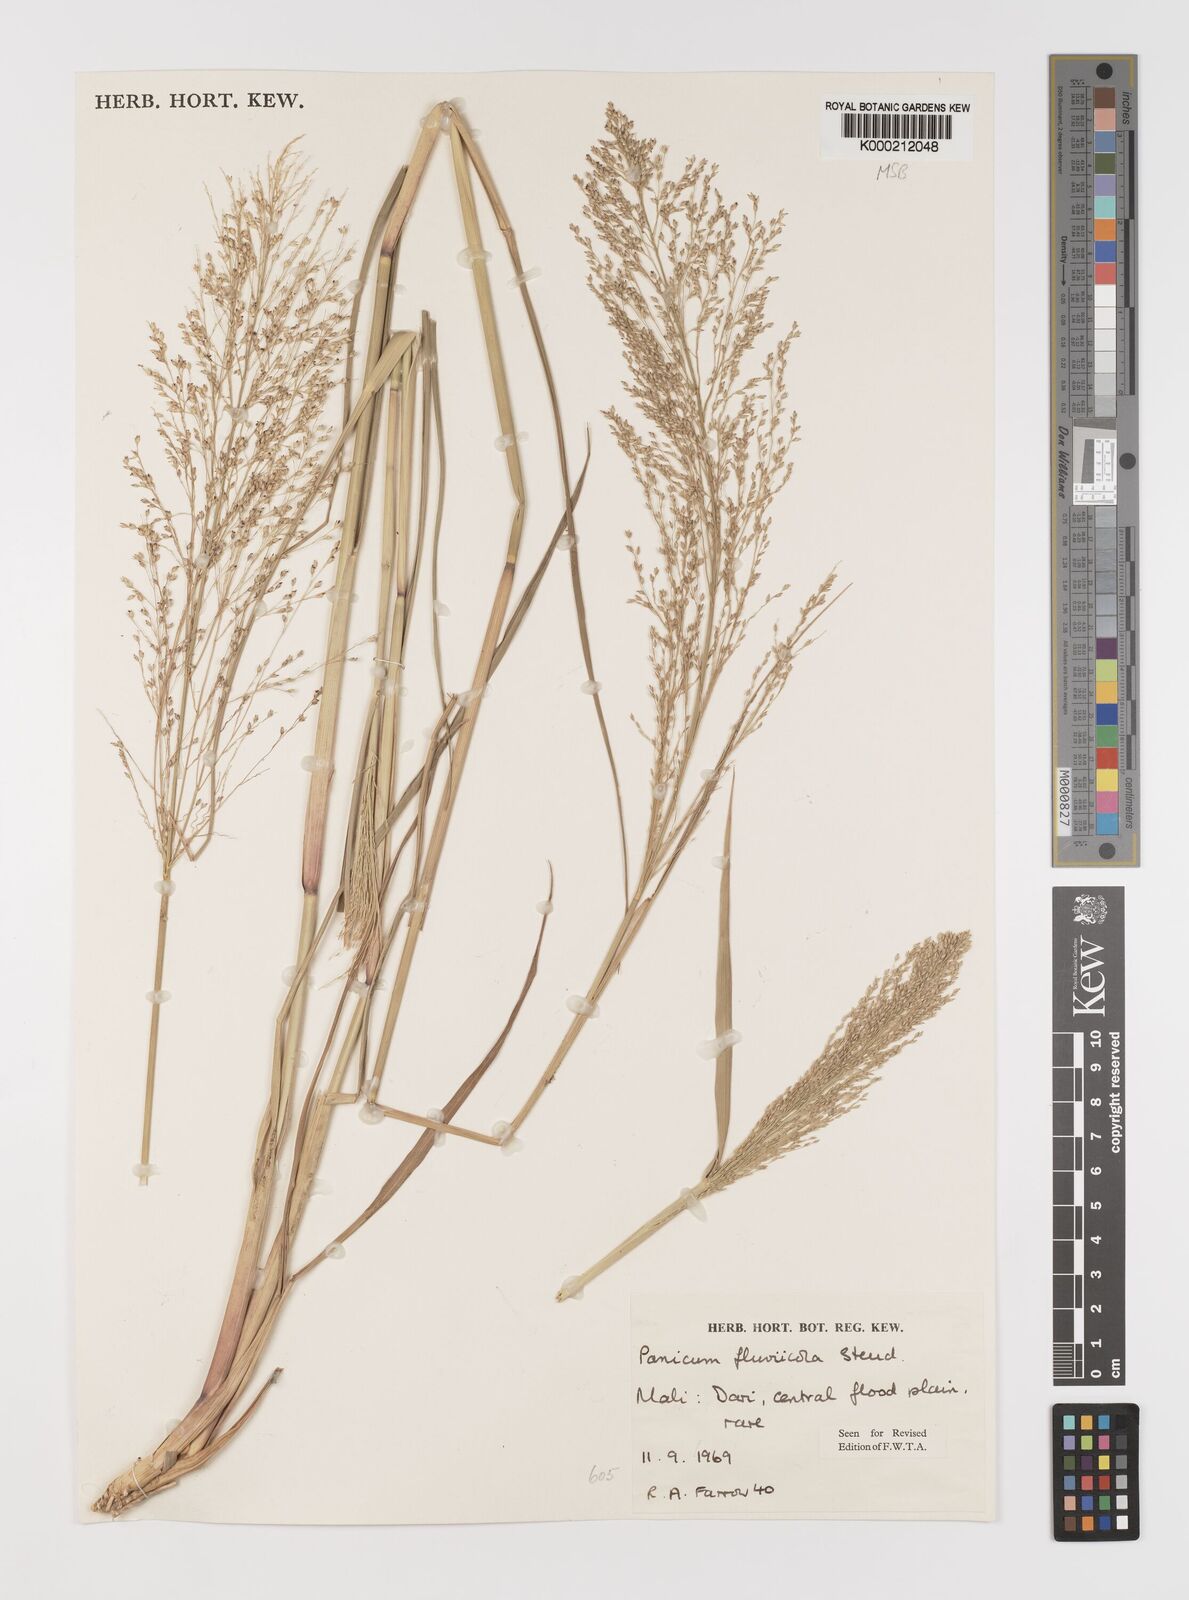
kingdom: Plantae
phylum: Tracheophyta
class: Liliopsida
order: Poales
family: Poaceae
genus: Panicum
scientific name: Panicum fluviicola
